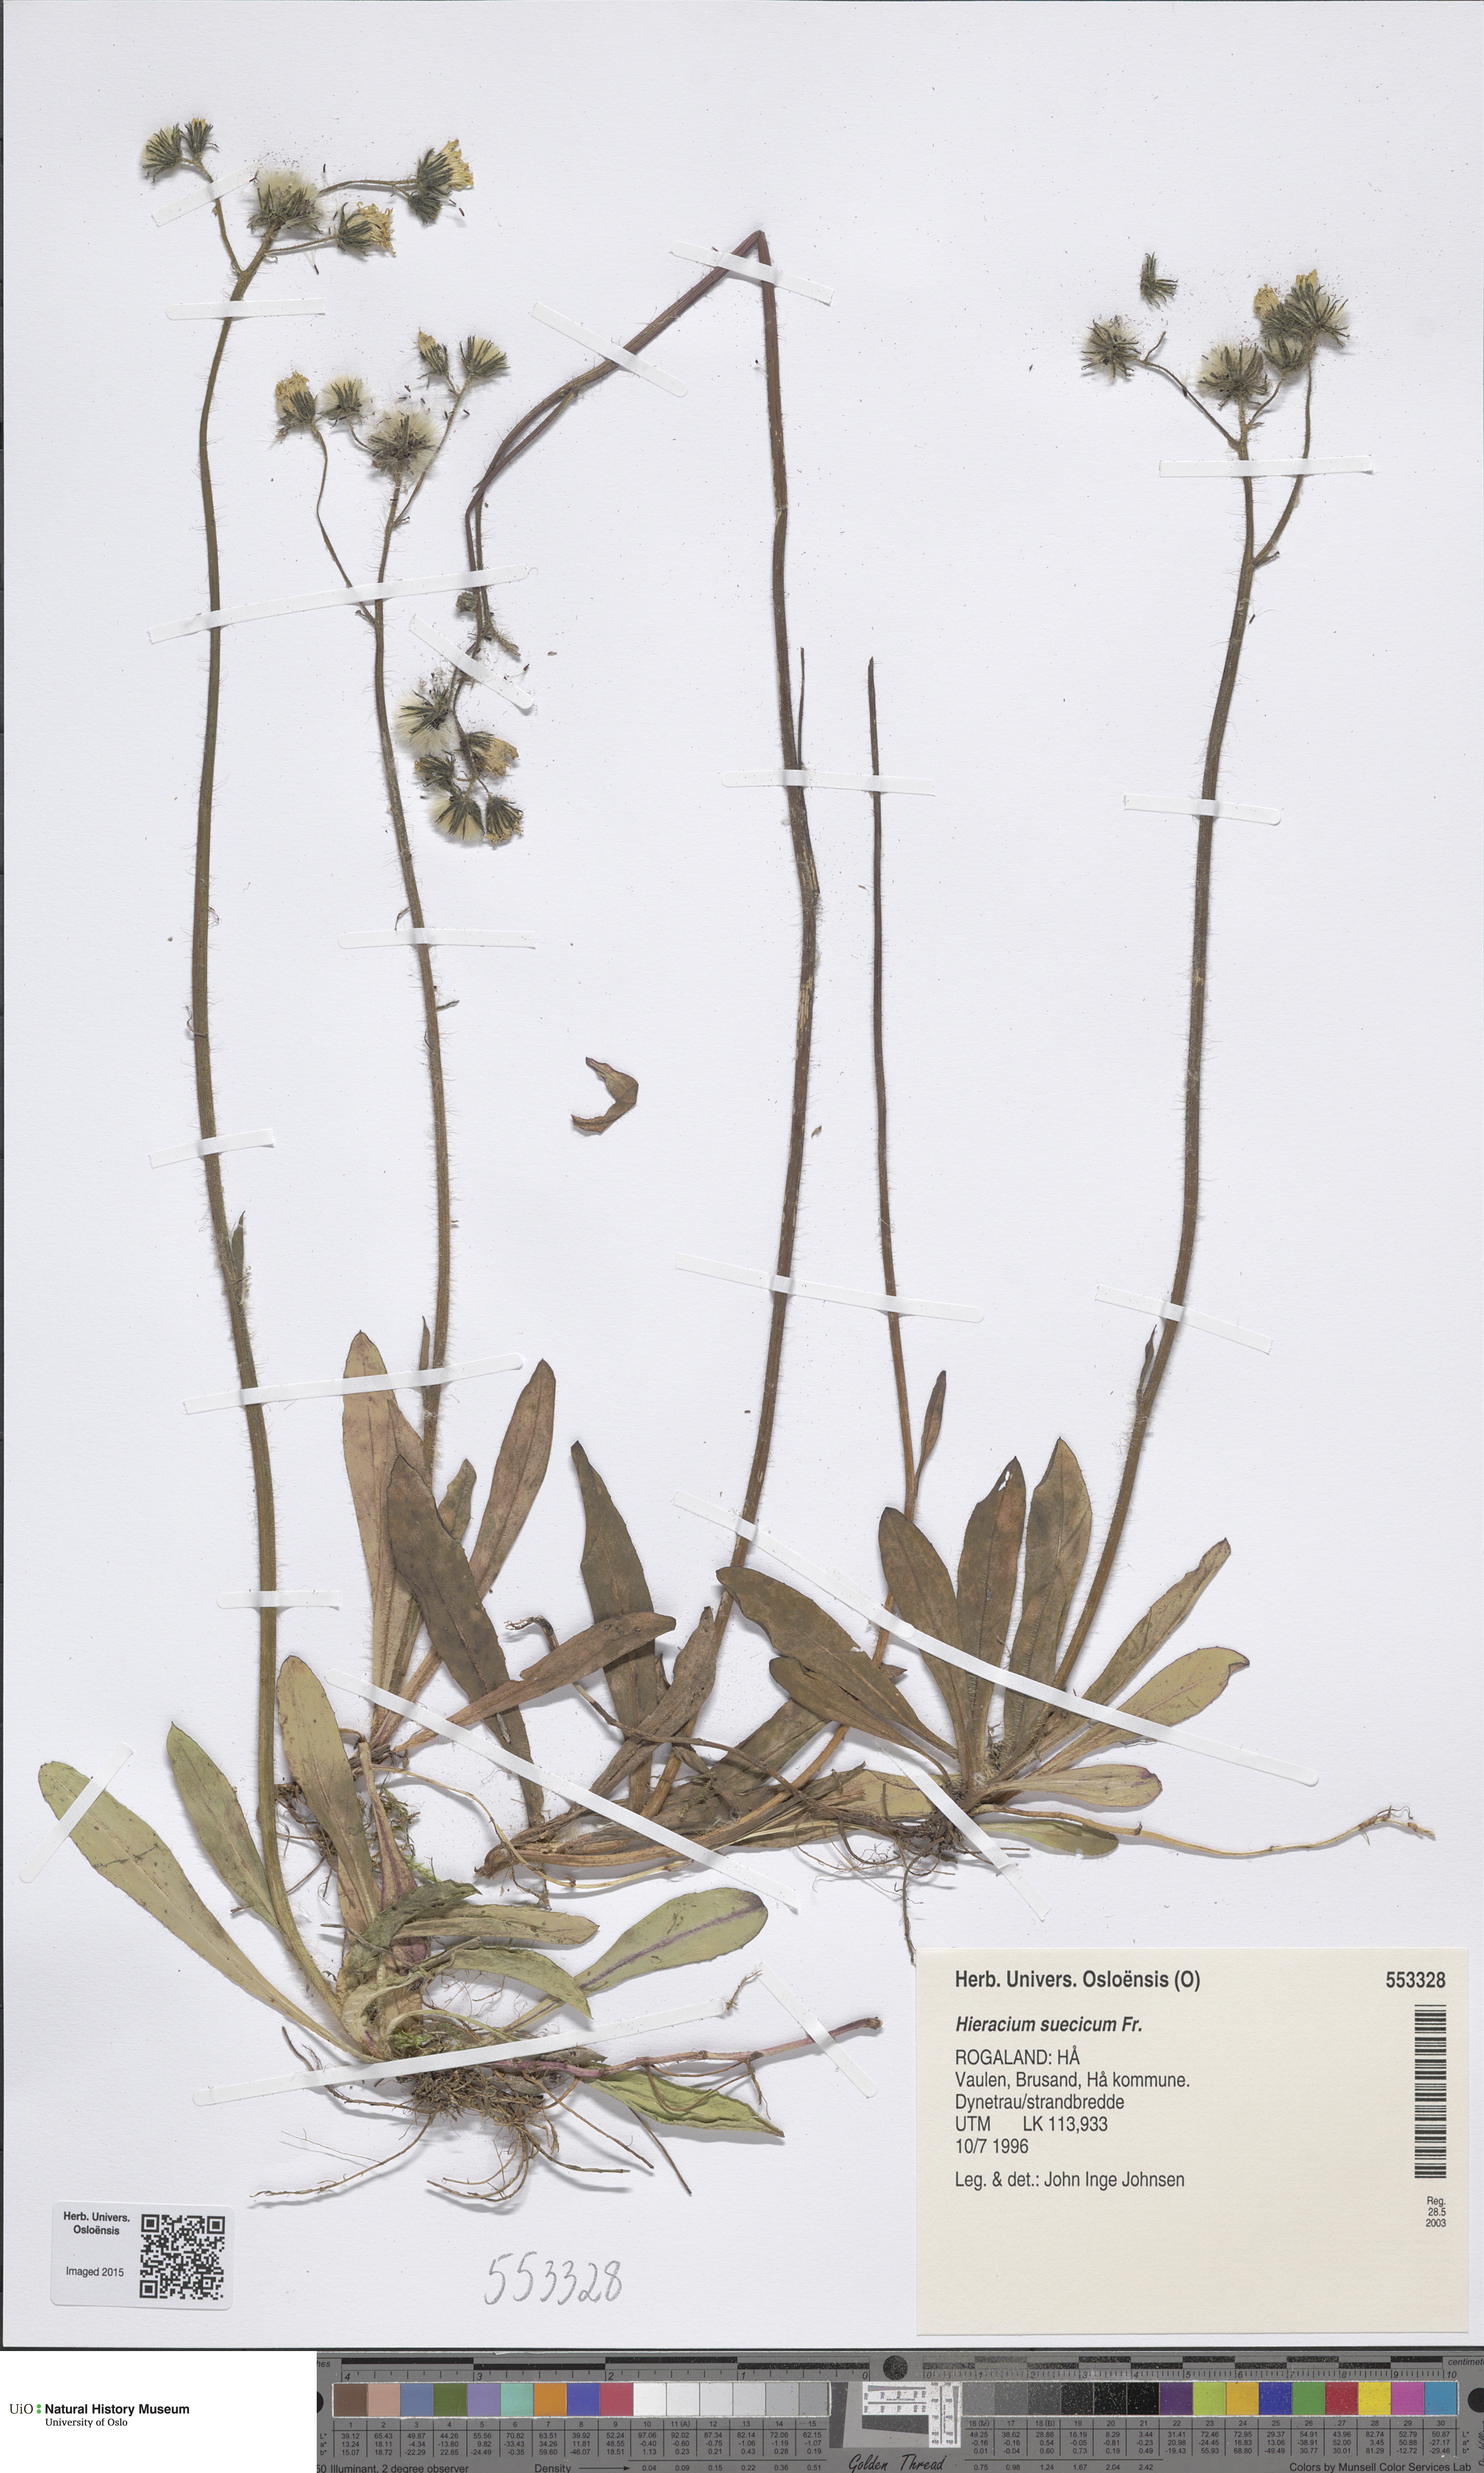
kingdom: Plantae
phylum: Tracheophyta
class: Magnoliopsida
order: Asterales
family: Asteraceae
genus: Pilosella
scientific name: Pilosella dubia
